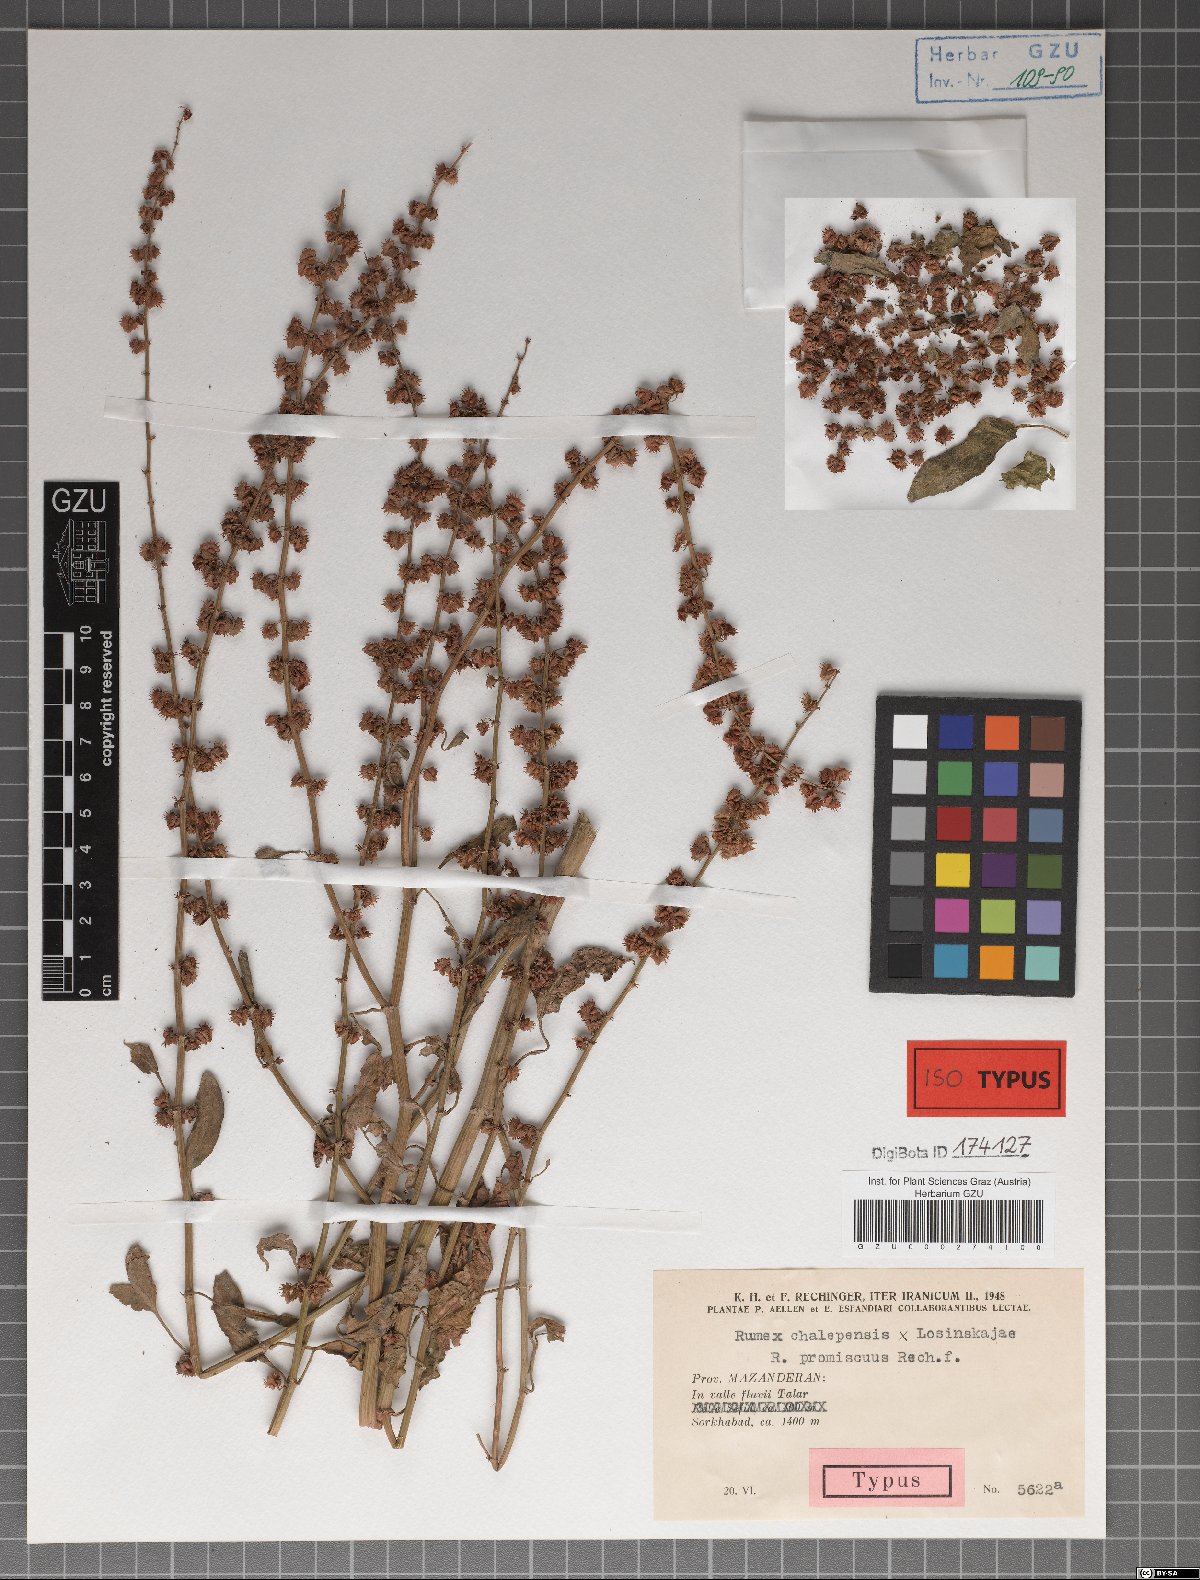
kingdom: Plantae
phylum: Tracheophyta
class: Magnoliopsida
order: Caryophyllales
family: Polygonaceae
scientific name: Polygonaceae
